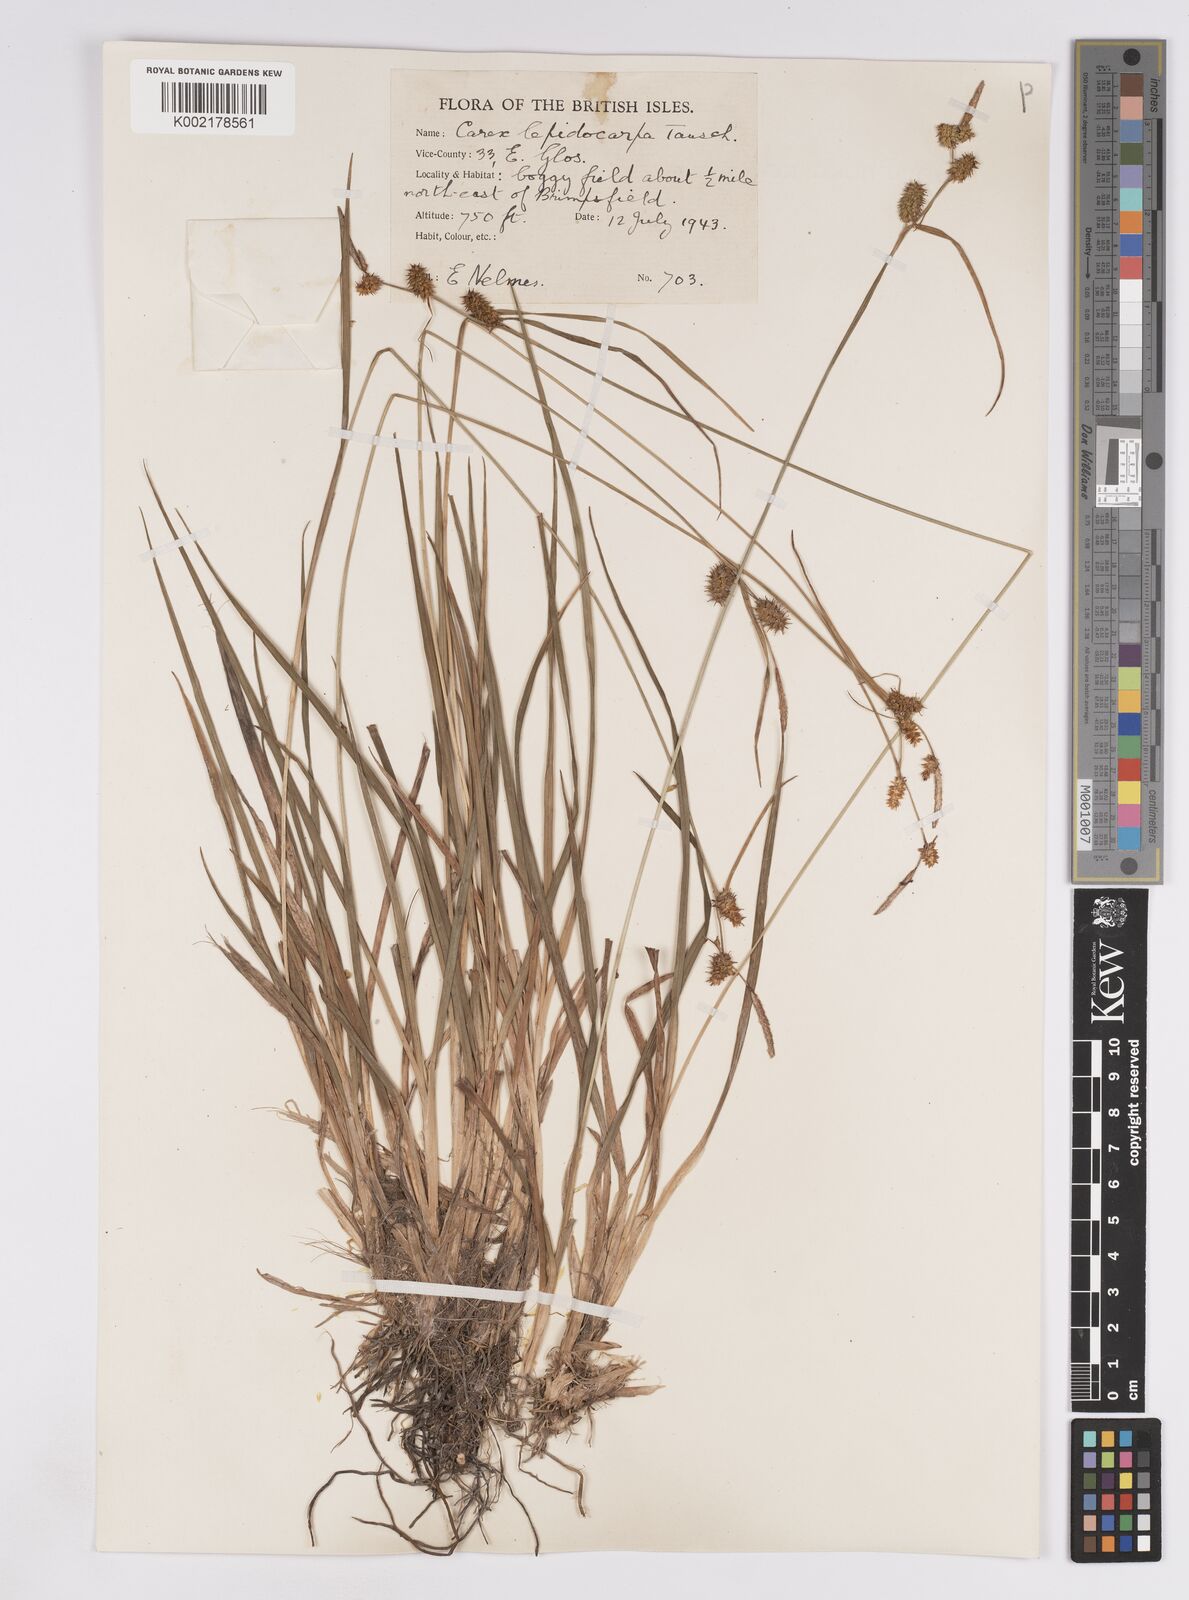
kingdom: Plantae
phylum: Tracheophyta
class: Liliopsida
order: Poales
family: Cyperaceae
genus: Carex
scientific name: Carex lepidocarpa
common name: Long-stalked yellow-sedge
